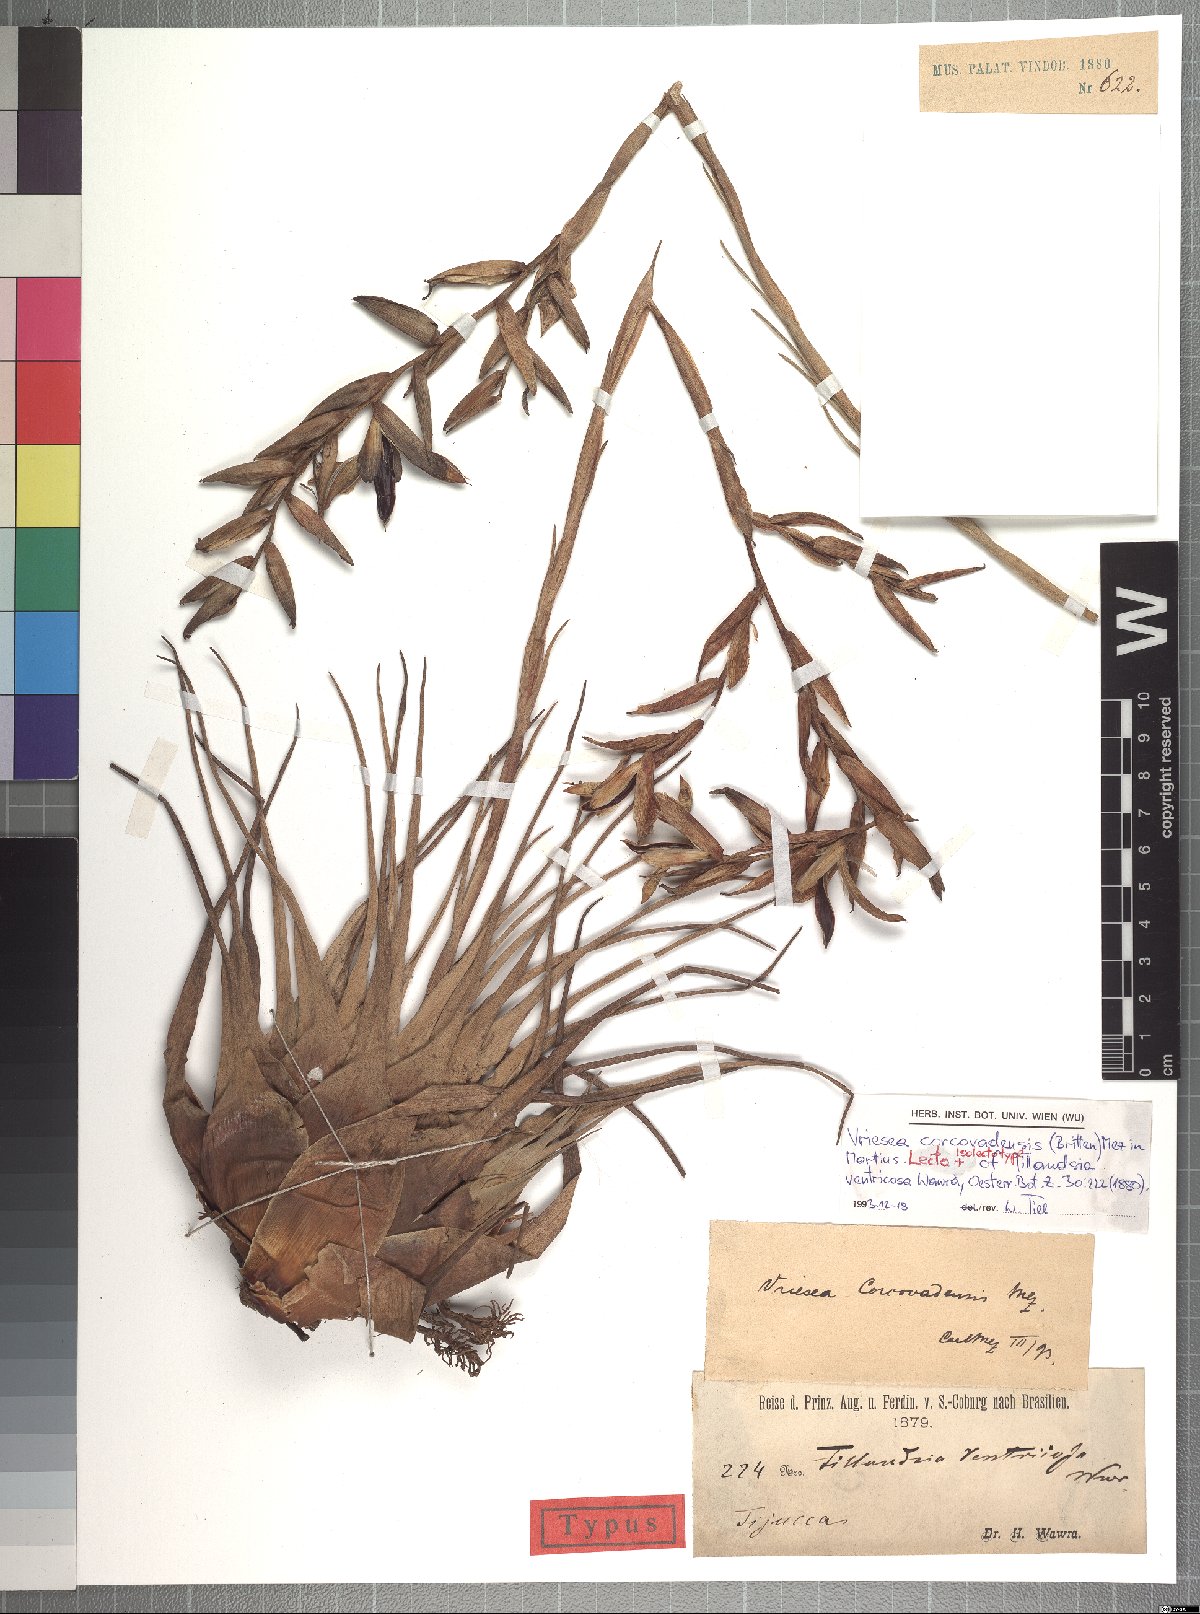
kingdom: Plantae
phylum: Tracheophyta
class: Liliopsida
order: Poales
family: Bromeliaceae
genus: Vriesea
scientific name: Vriesea corcovadensis
